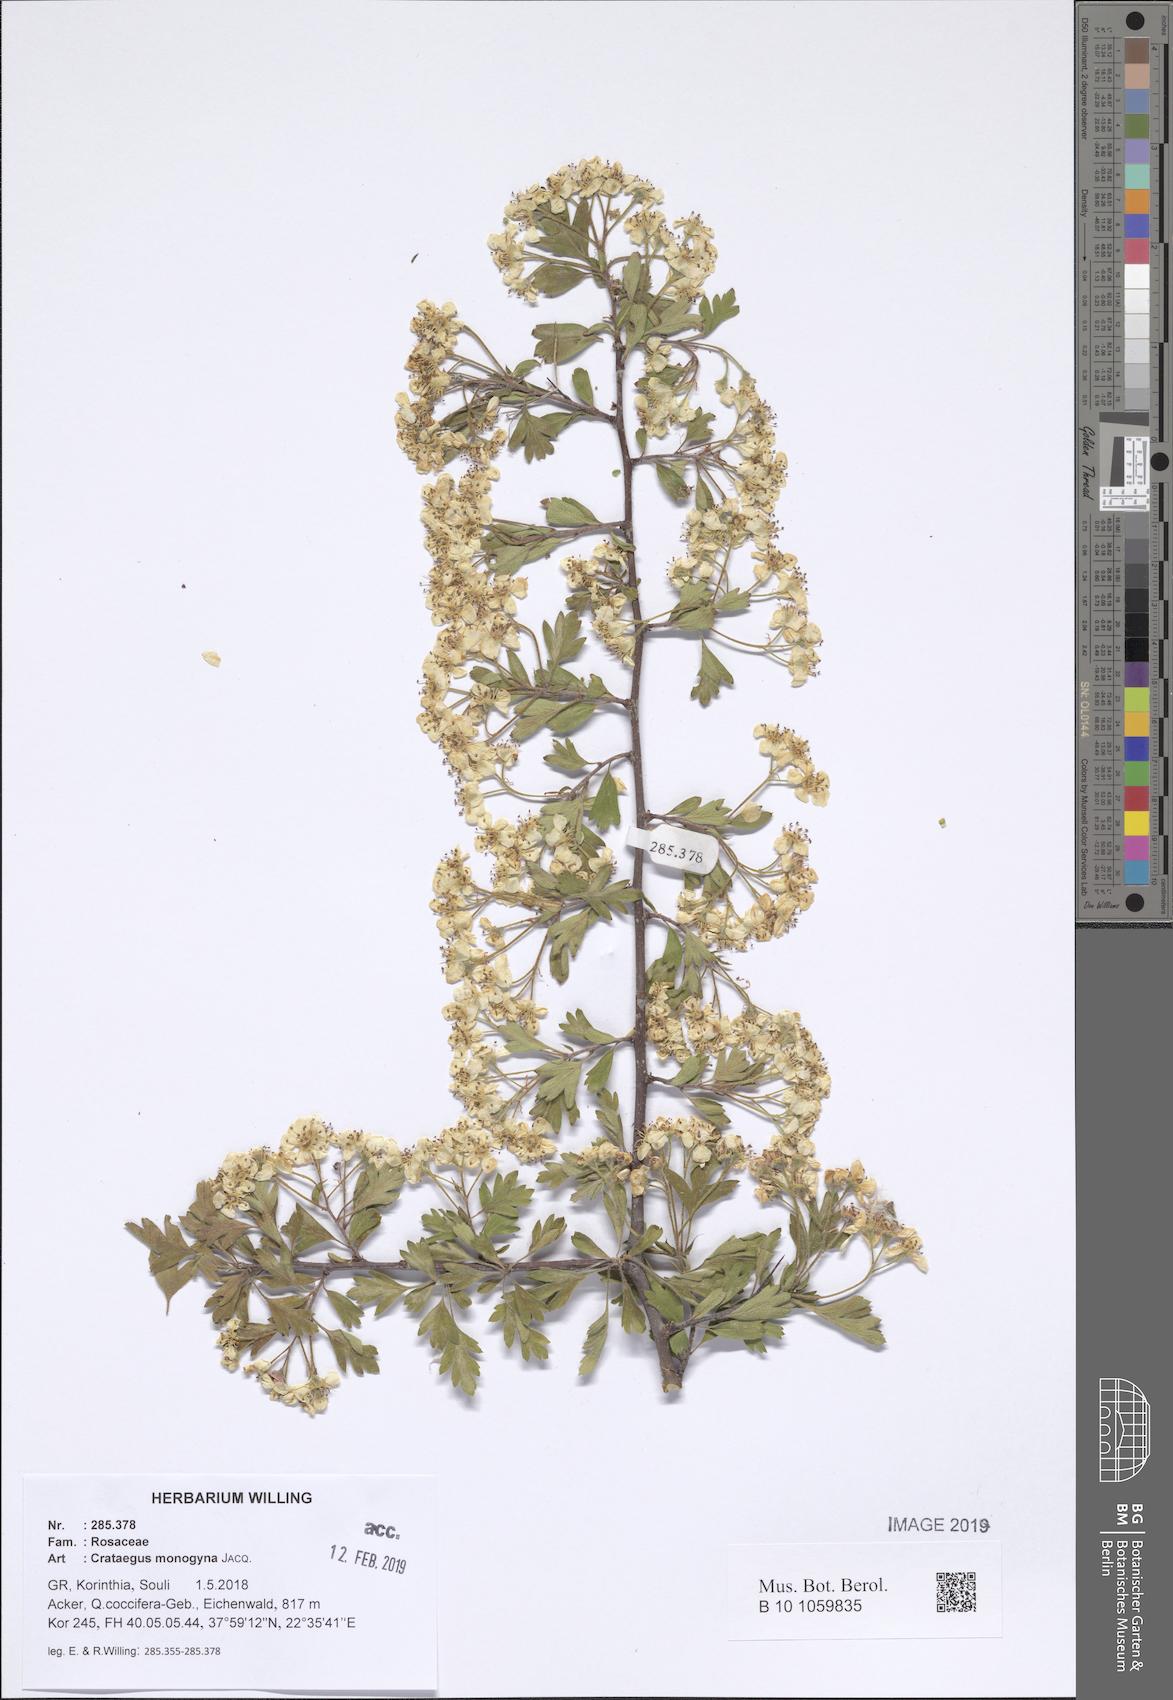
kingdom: Plantae
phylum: Tracheophyta
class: Magnoliopsida
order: Rosales
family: Rosaceae
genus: Crataegus
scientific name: Crataegus monogyna
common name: Hawthorn
